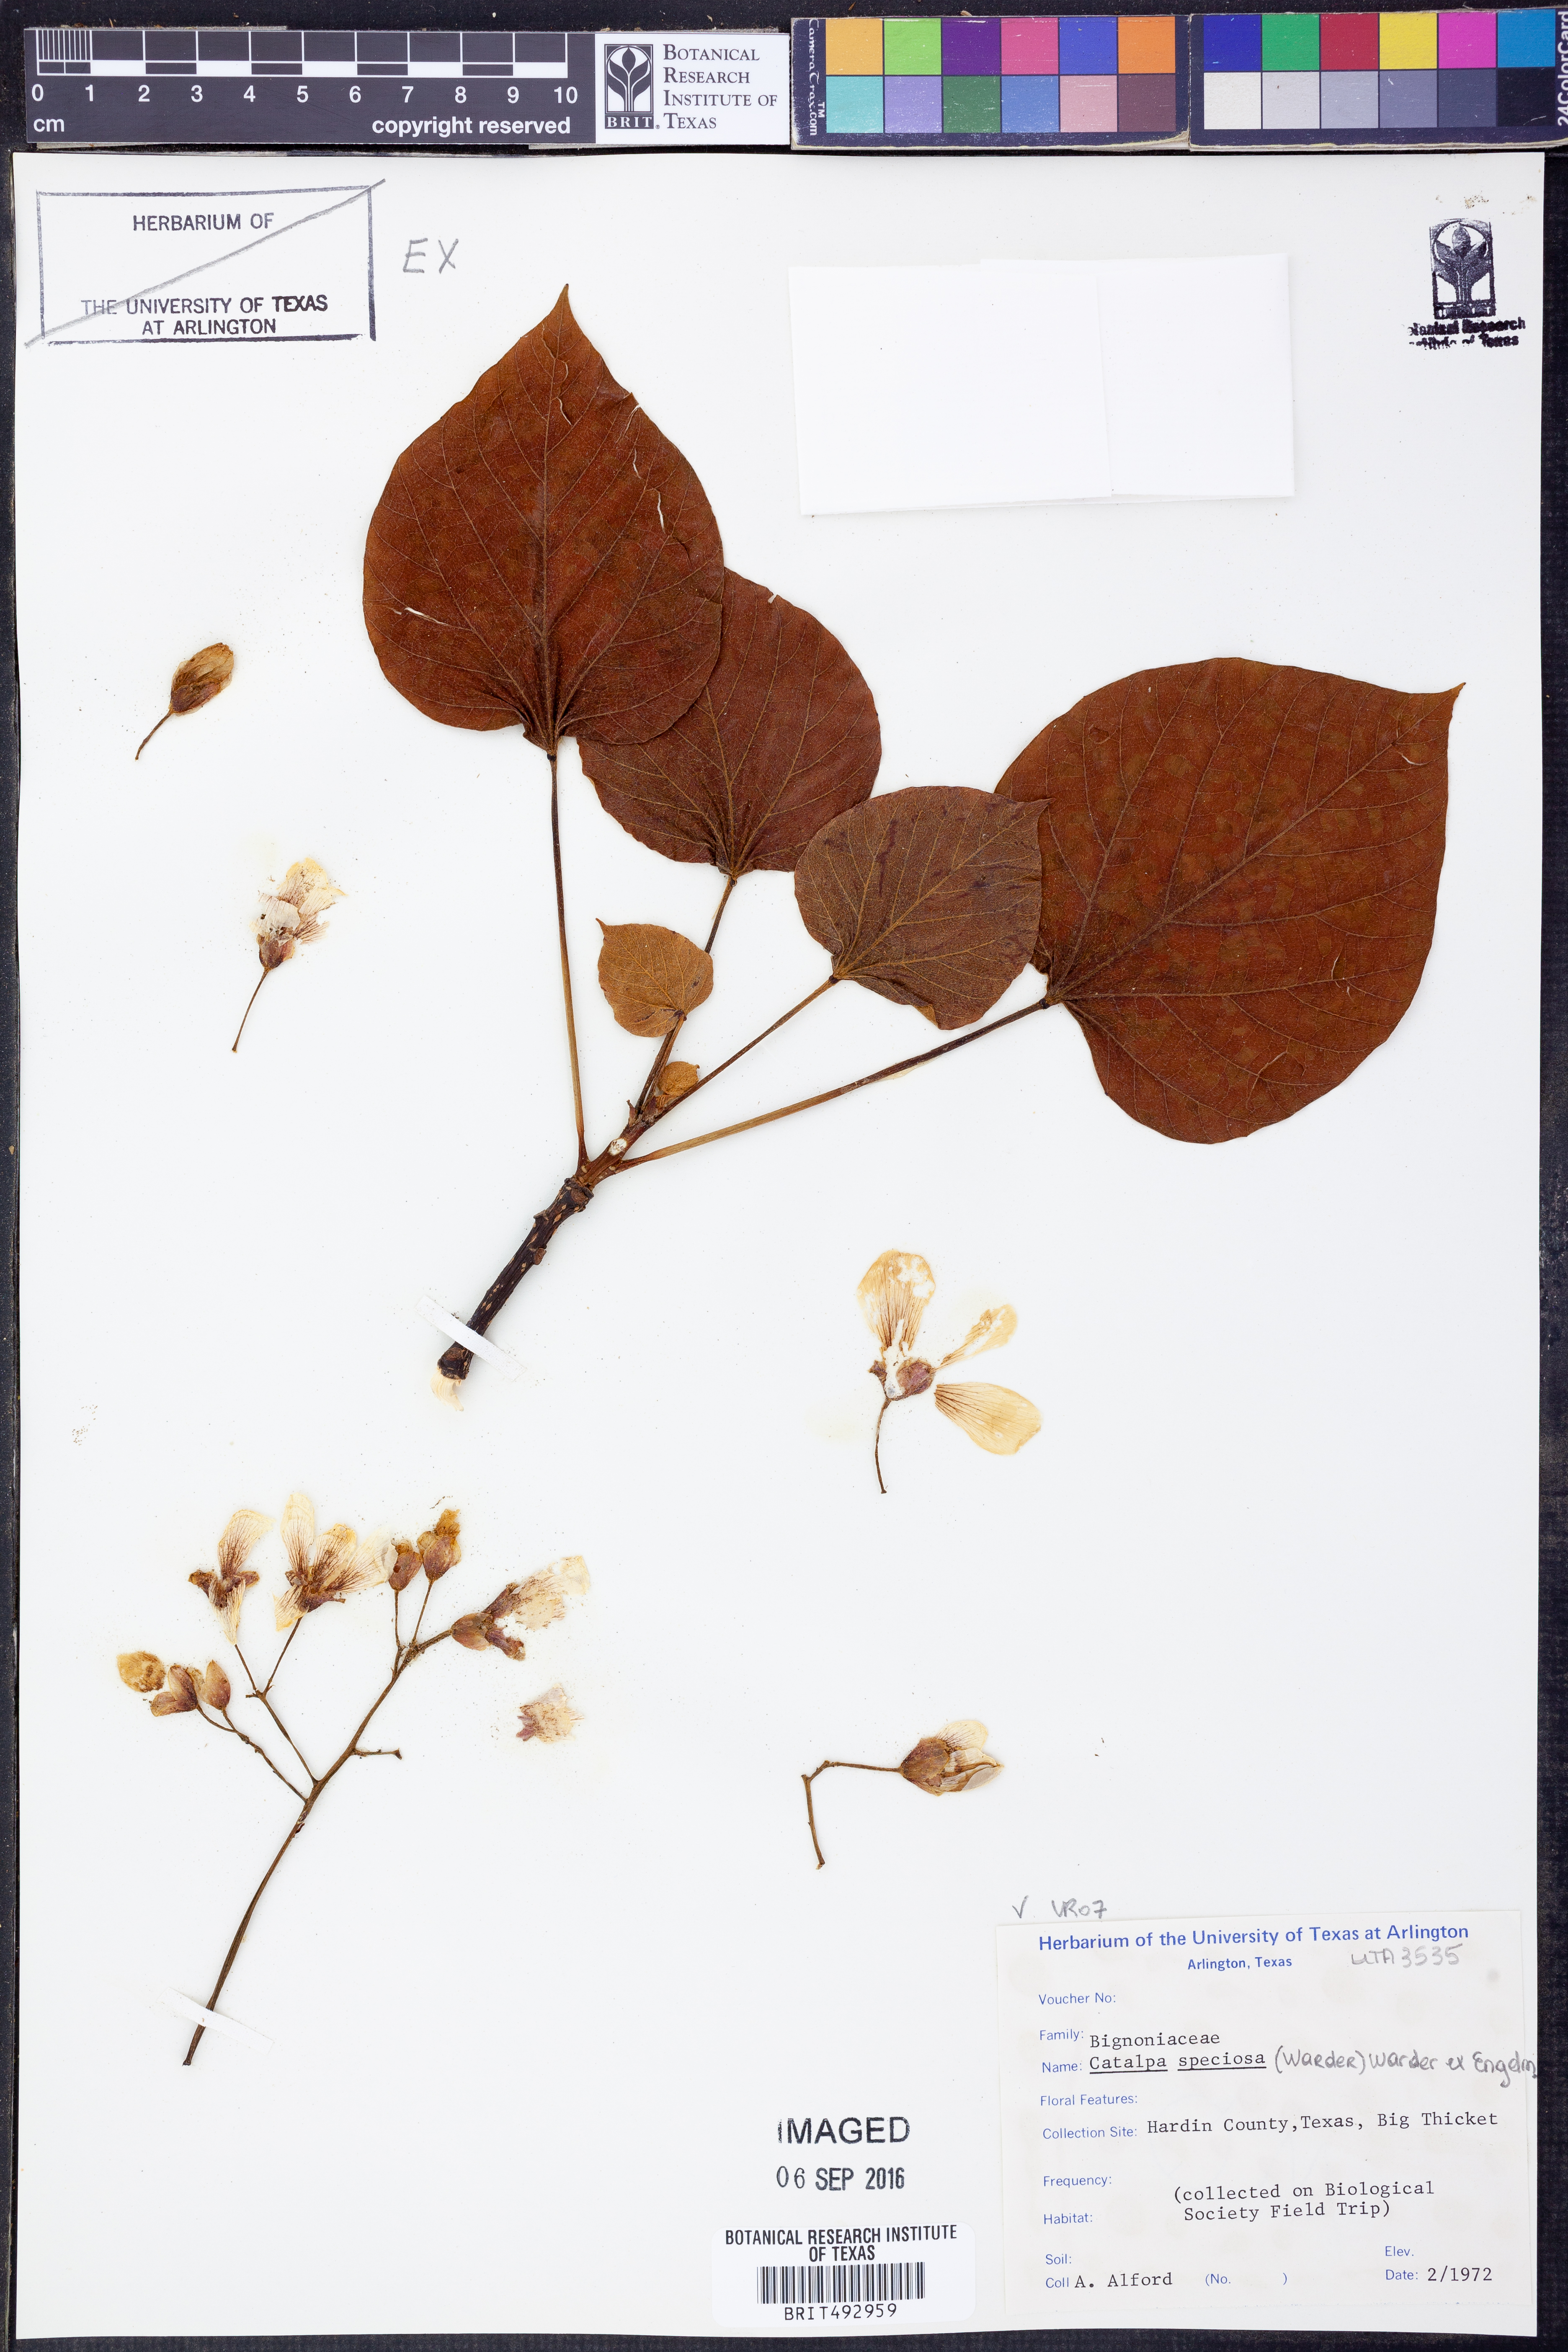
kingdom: Plantae
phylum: Tracheophyta
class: Magnoliopsida
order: Lamiales
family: Bignoniaceae
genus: Catalpa
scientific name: Catalpa speciosa
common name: Northern catalpa
